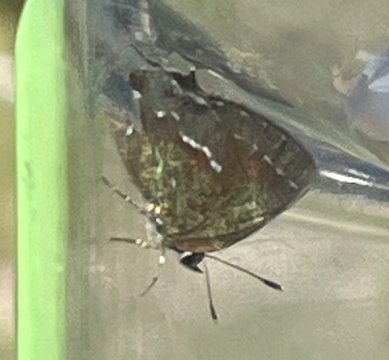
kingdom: Animalia
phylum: Arthropoda
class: Insecta
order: Lepidoptera
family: Lycaenidae
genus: Mitoura
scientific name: Mitoura gryneus
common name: Juniper Hairstreak
